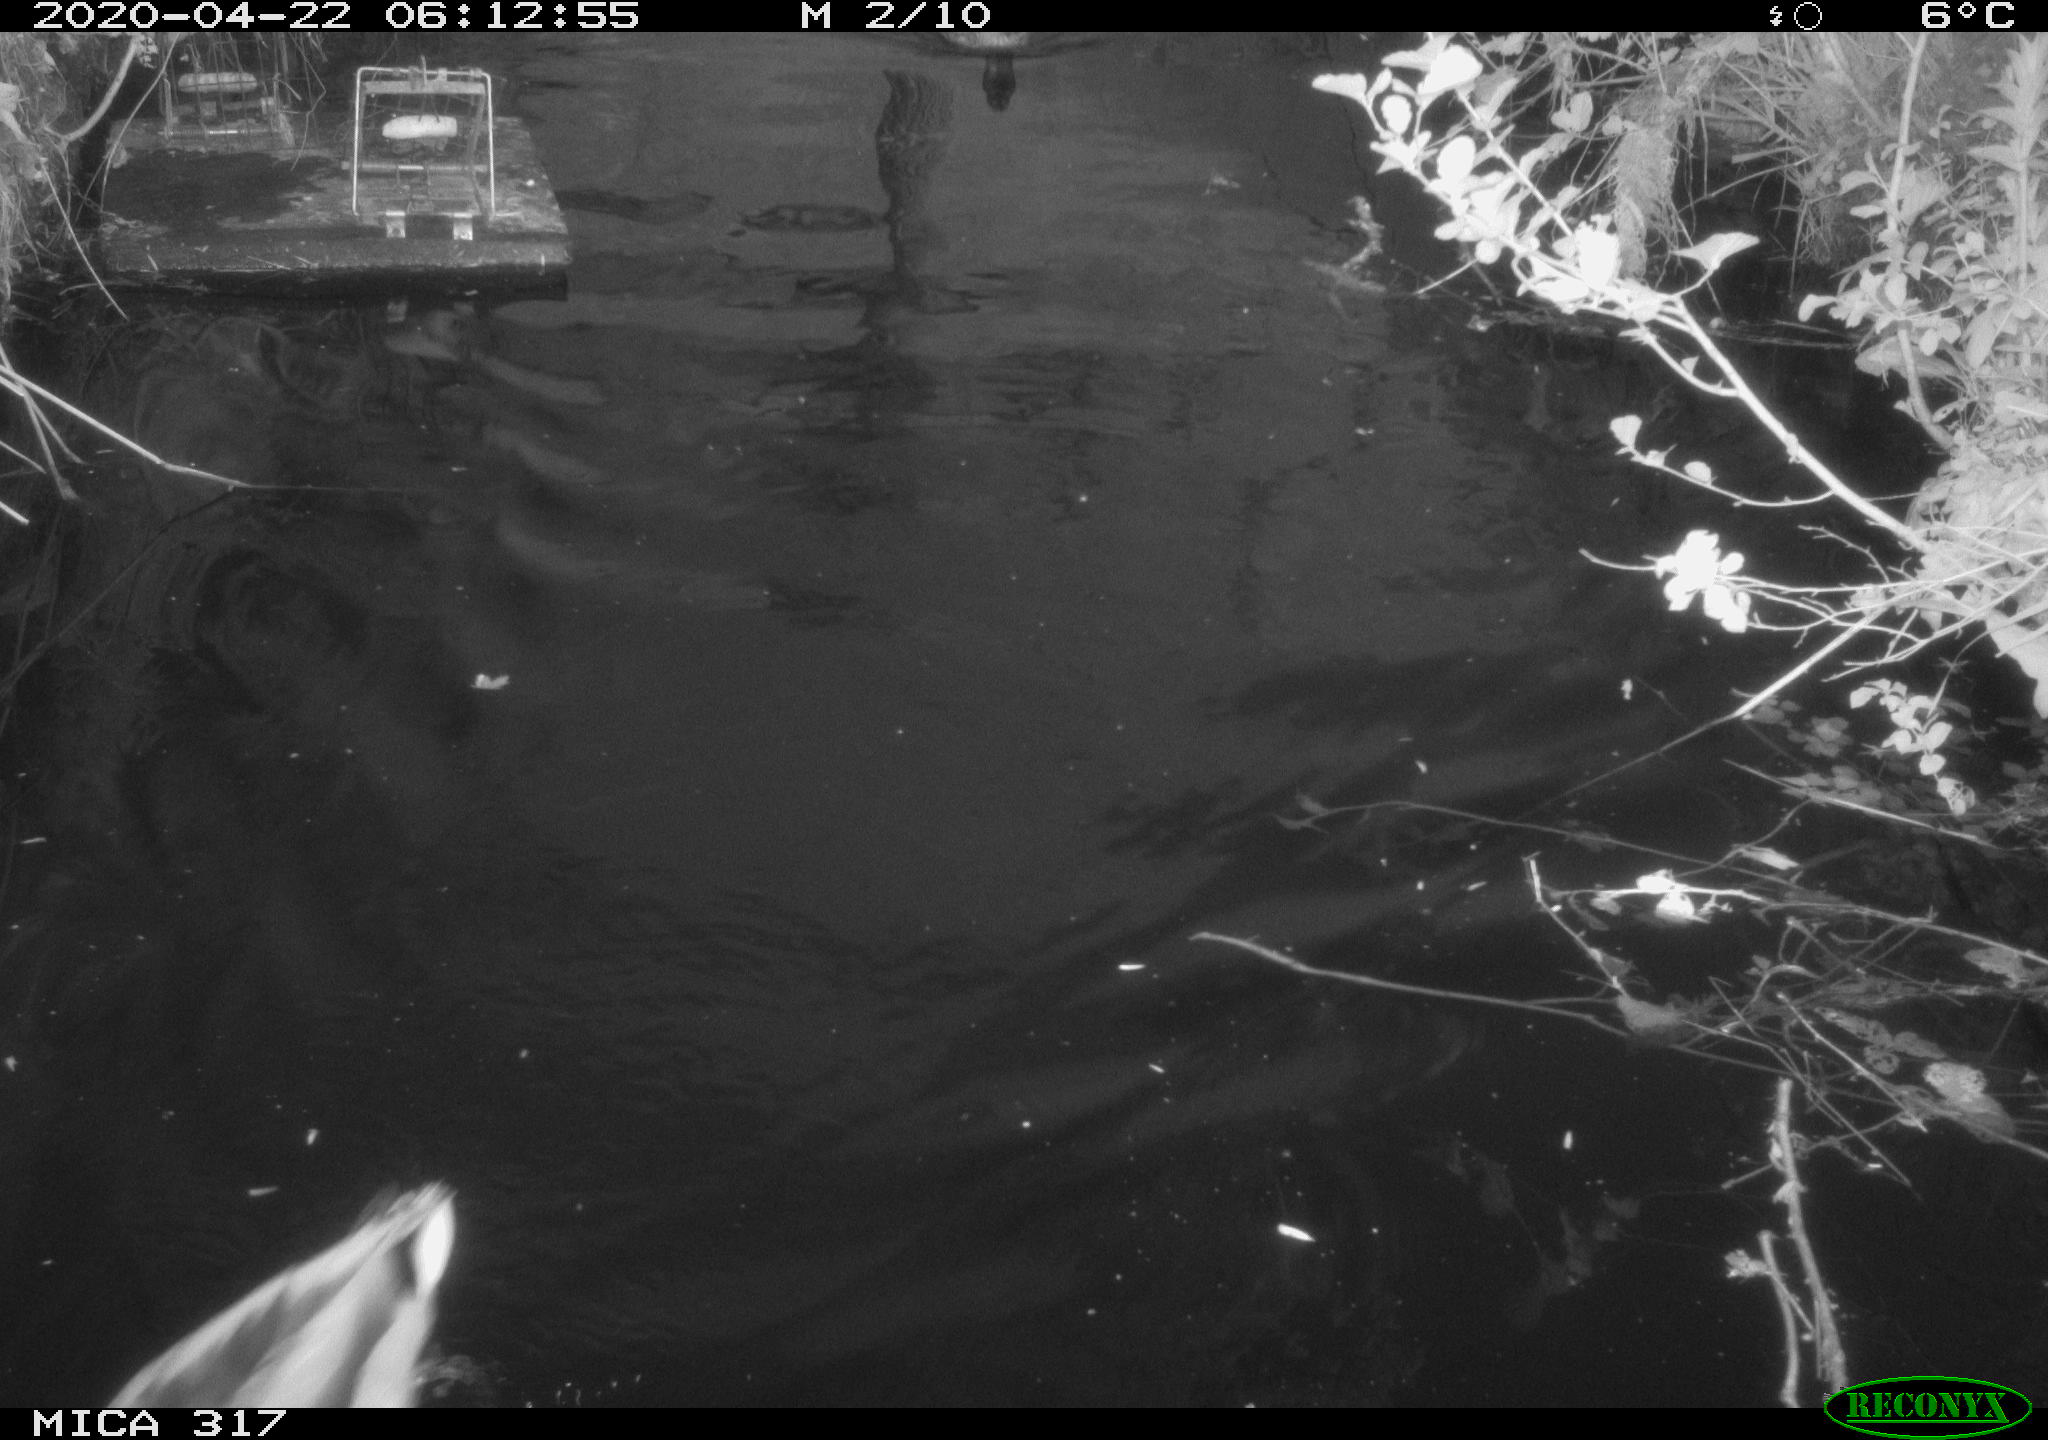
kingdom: Animalia
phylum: Chordata
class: Aves
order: Anseriformes
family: Anatidae
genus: Anas
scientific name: Anas platyrhynchos
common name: Mallard
